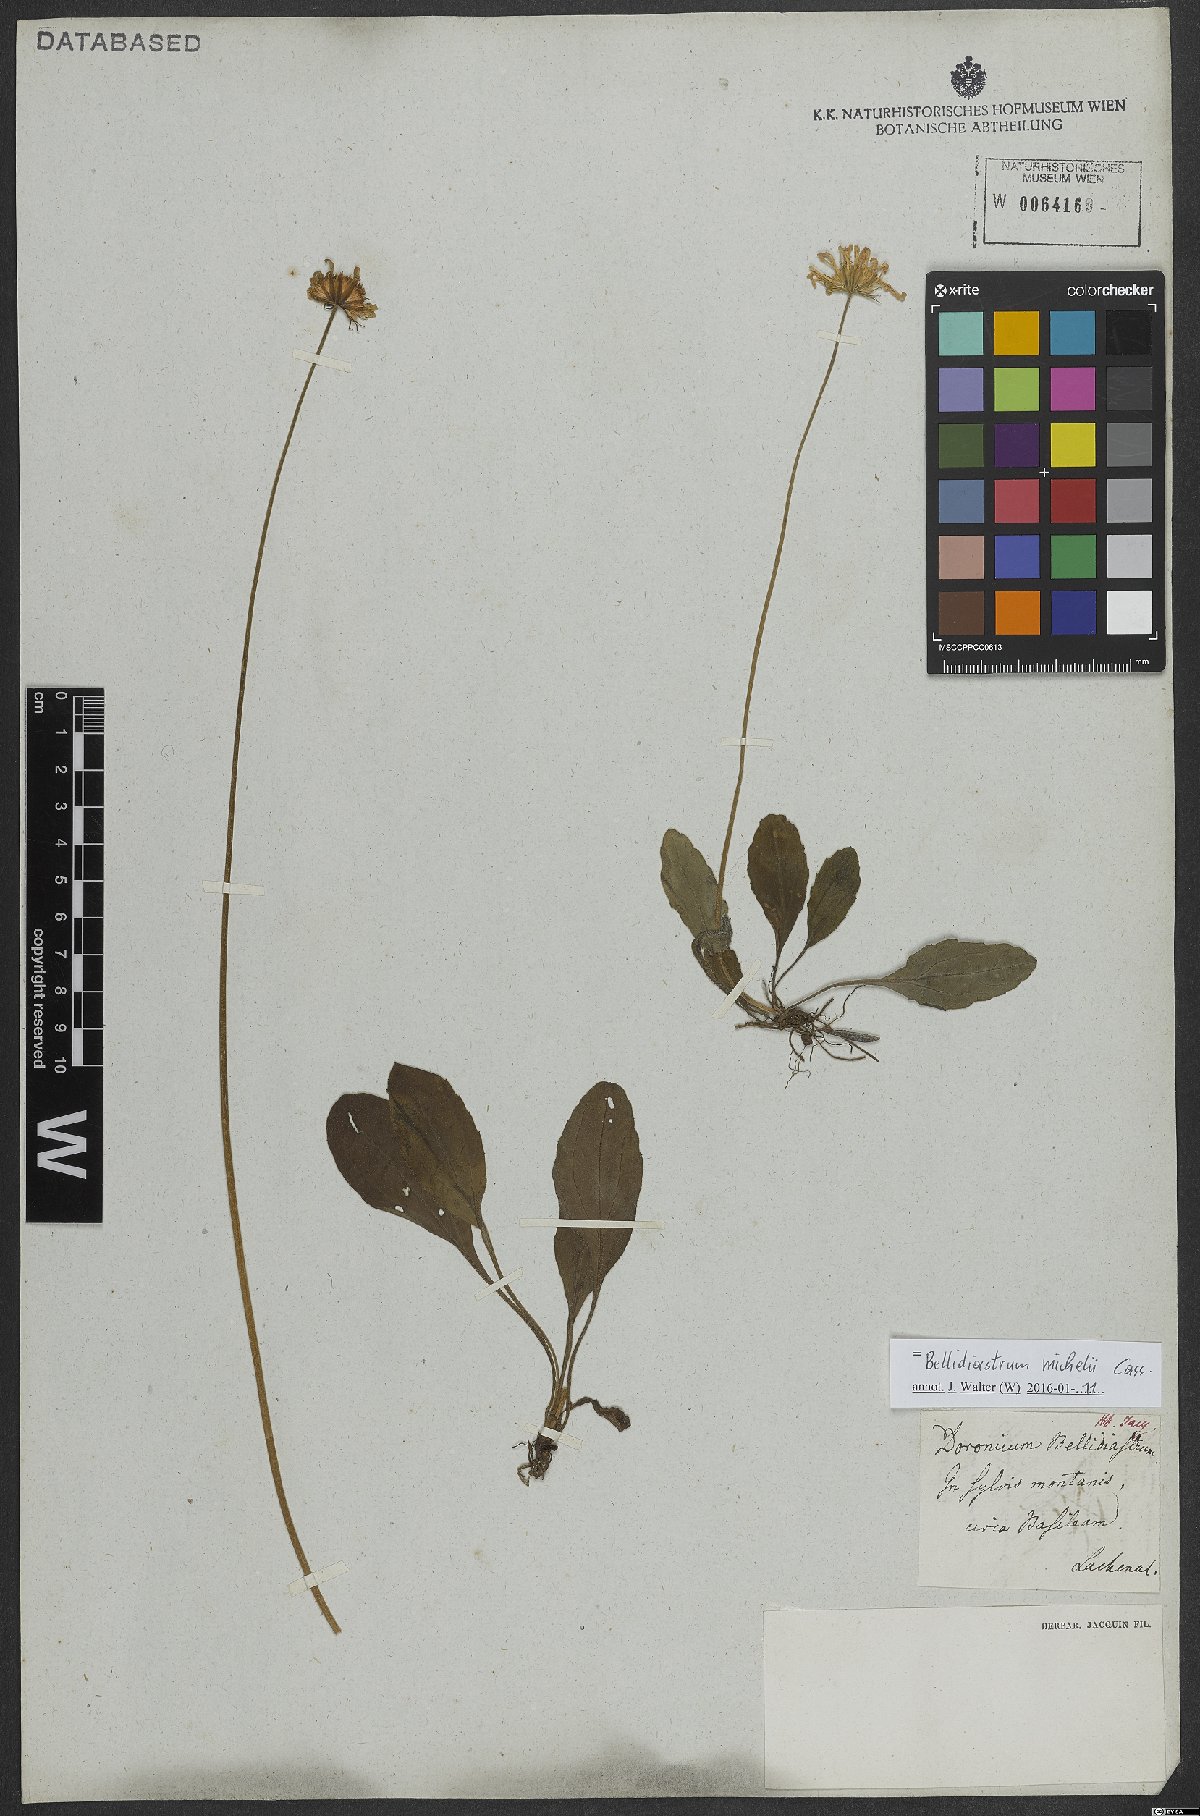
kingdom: Plantae
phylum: Tracheophyta
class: Magnoliopsida
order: Asterales
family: Asteraceae
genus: Bellidiastrum
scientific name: Bellidiastrum michelii
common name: Daisy-star aster
